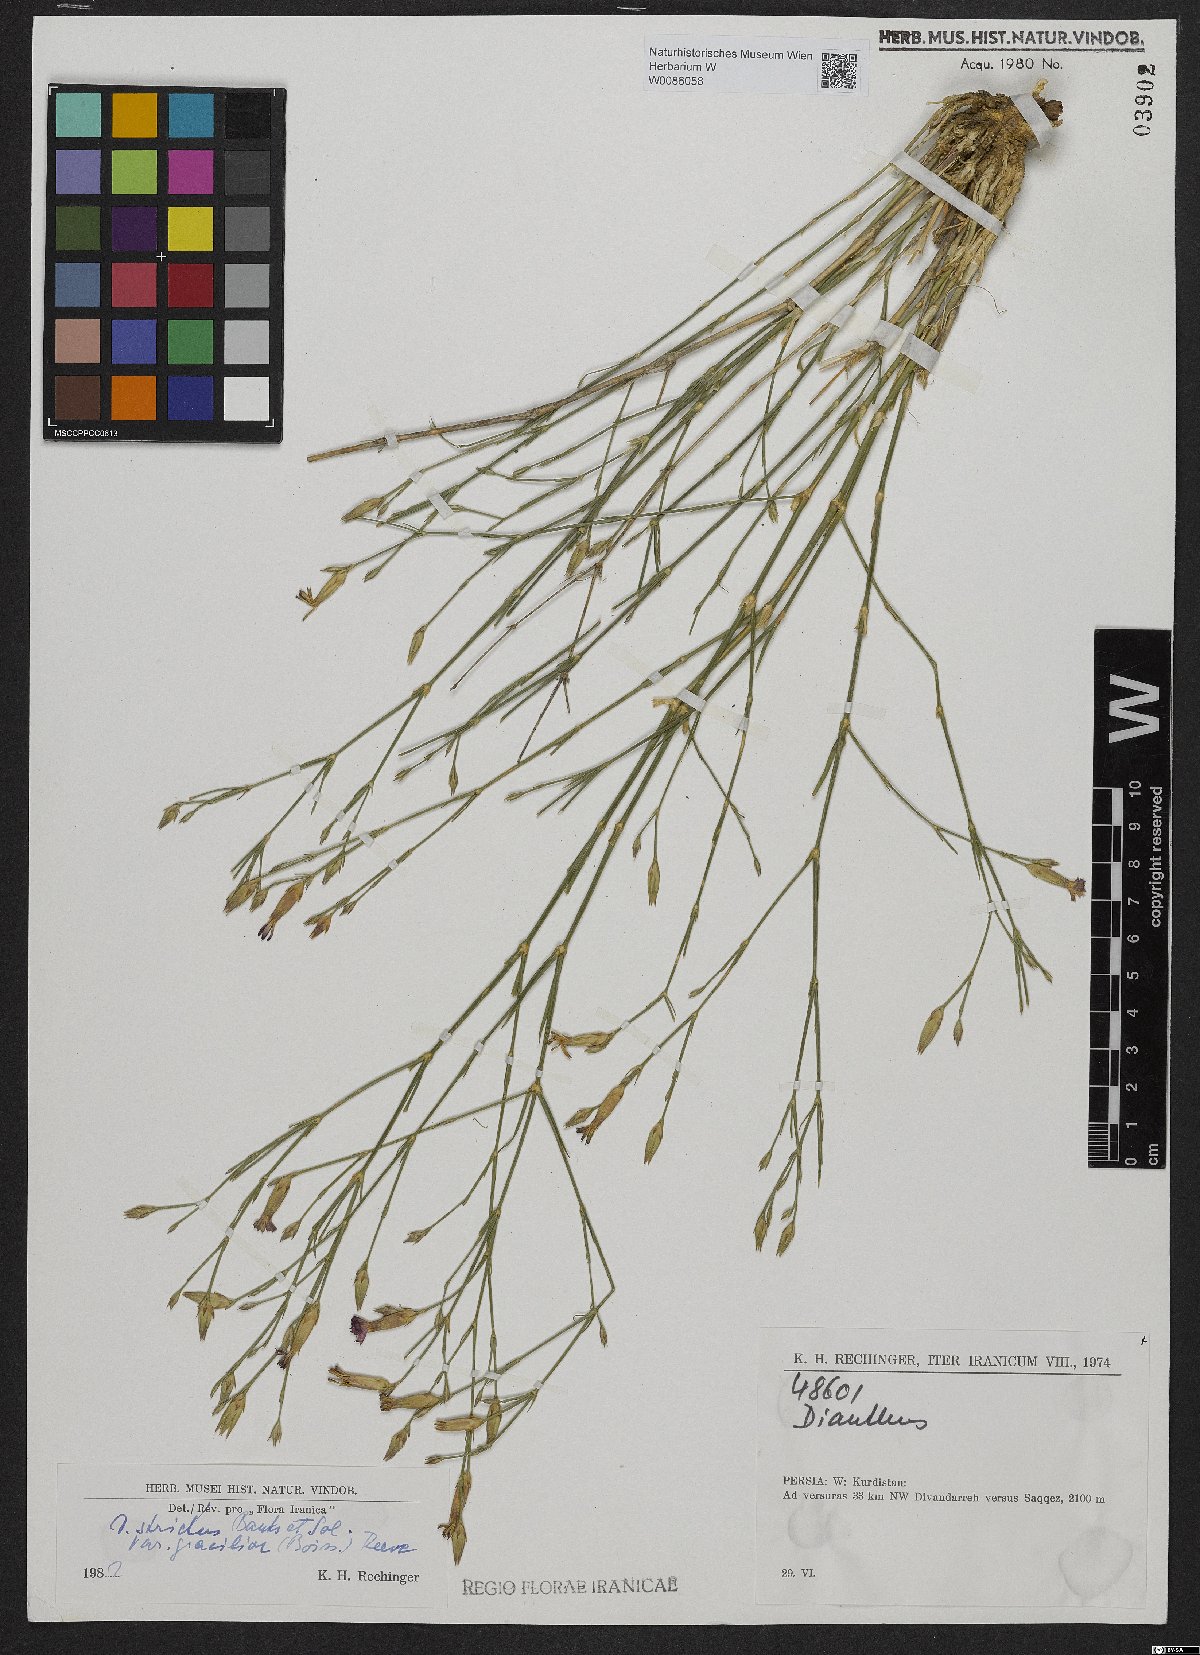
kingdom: Plantae
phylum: Tracheophyta
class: Magnoliopsida
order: Caryophyllales
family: Caryophyllaceae
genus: Dianthus
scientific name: Dianthus strictus
